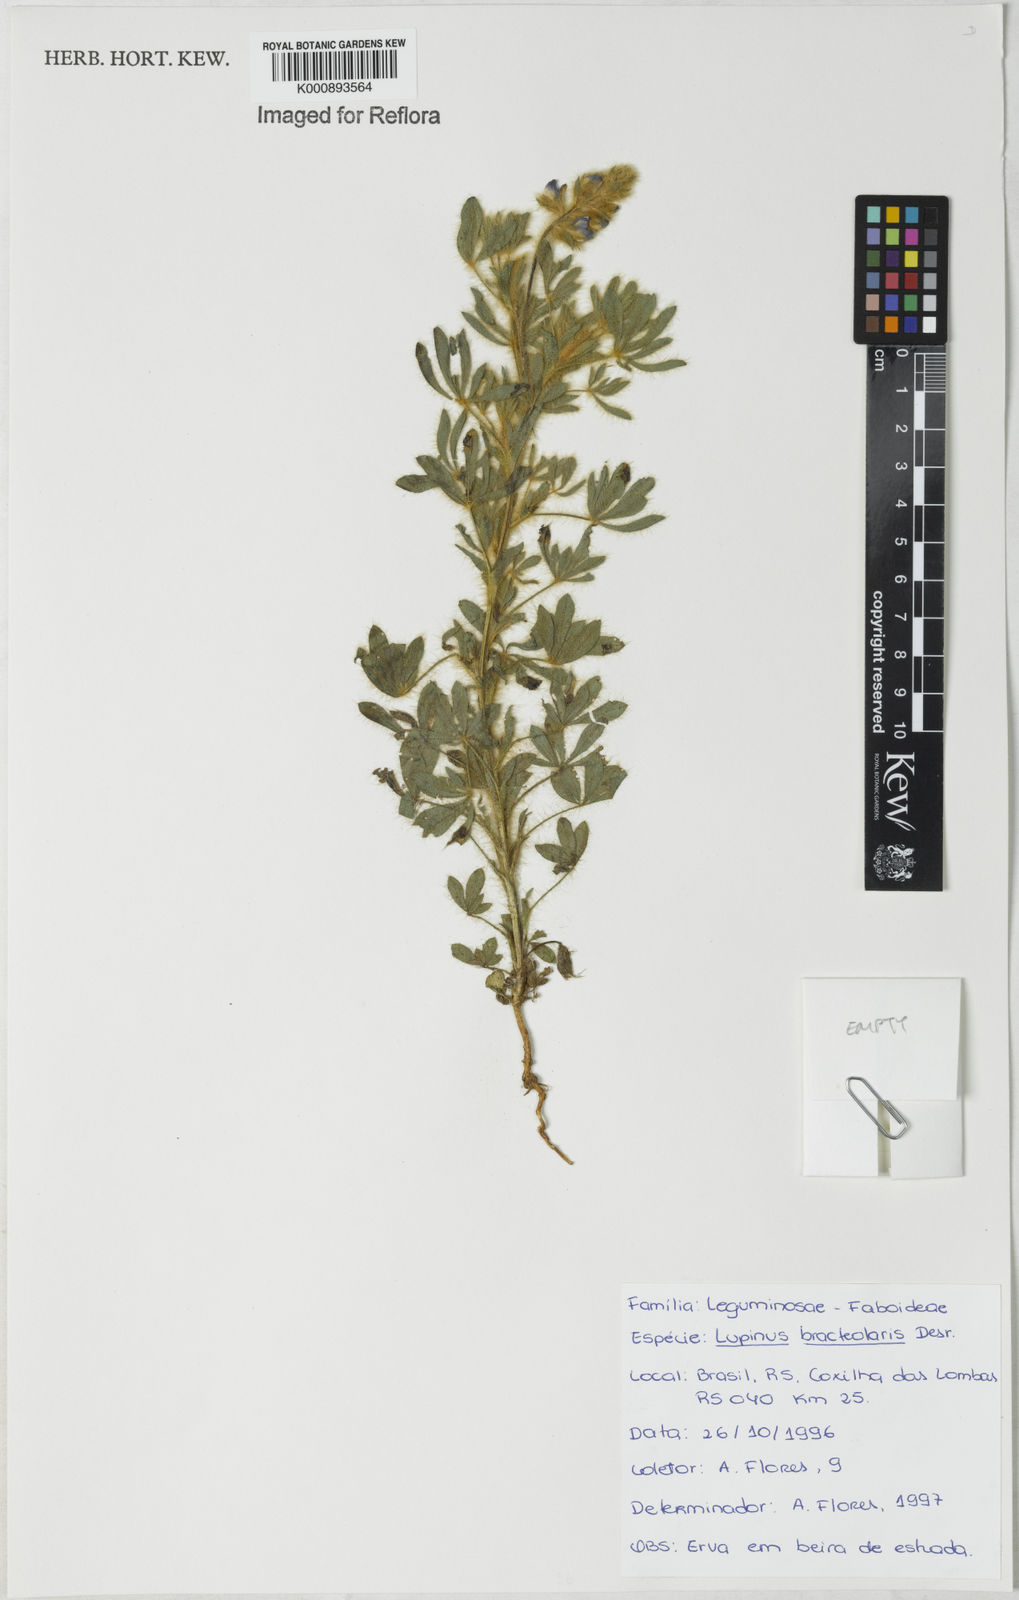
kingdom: Plantae
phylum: Tracheophyta
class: Magnoliopsida
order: Fabales
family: Fabaceae
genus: Lupinus
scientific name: Lupinus bracteolaris
